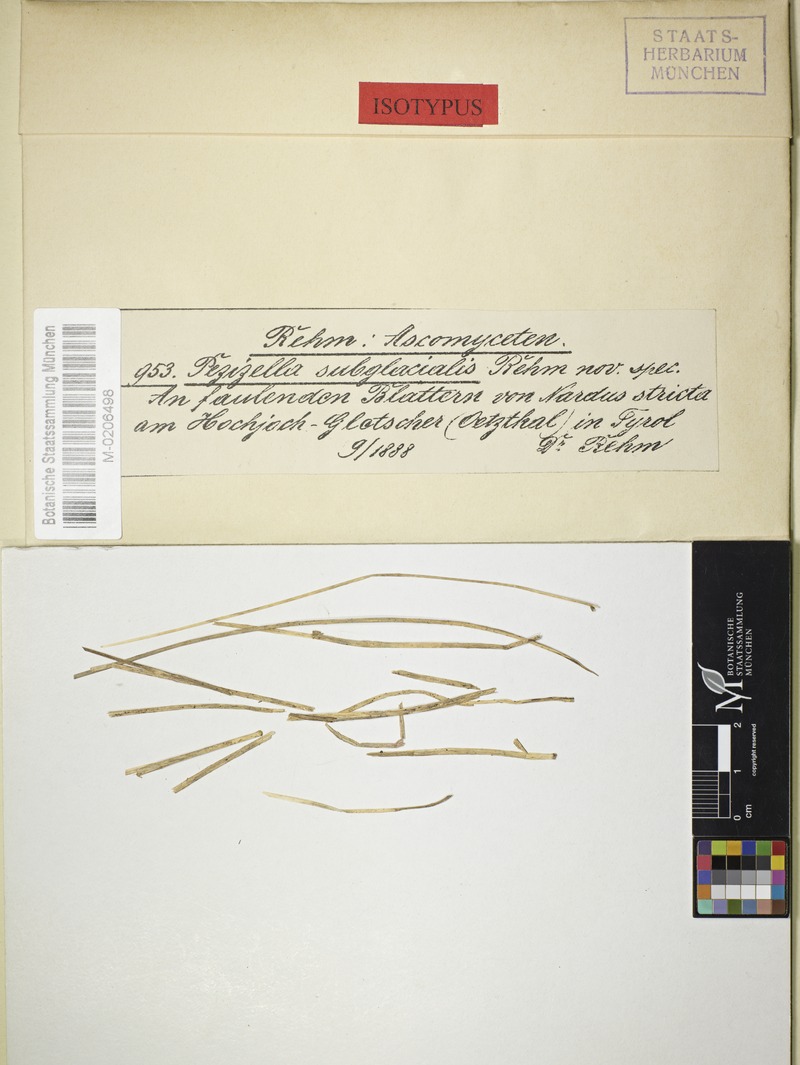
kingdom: Fungi
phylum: Ascomycota
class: Leotiomycetes
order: Helotiales
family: Pezizellaceae
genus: Pezizella
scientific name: Pezizella subglacialis
